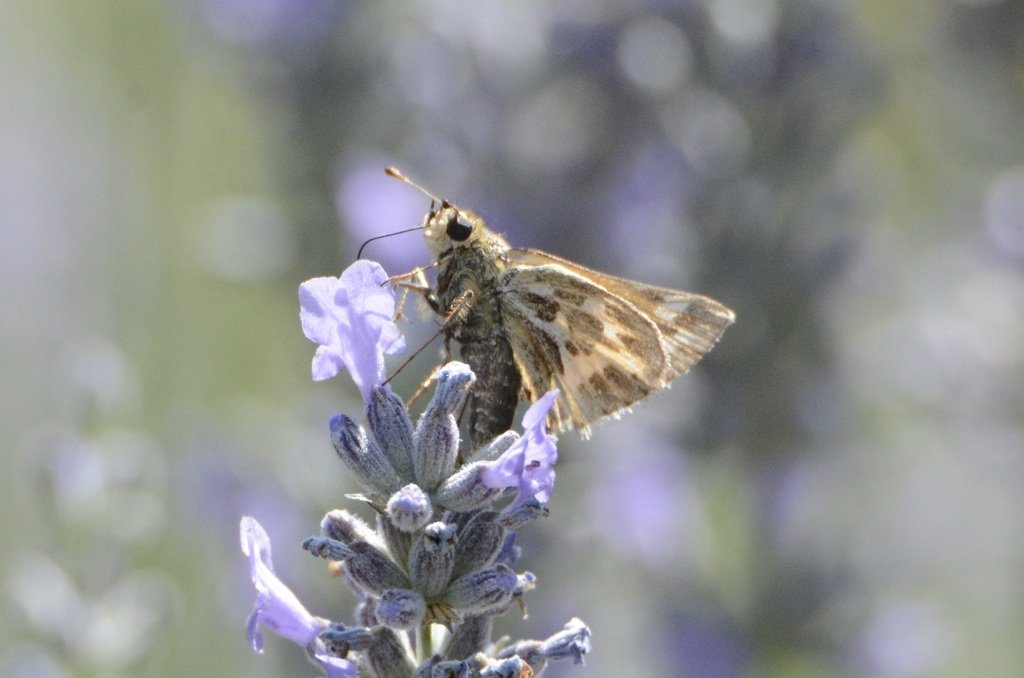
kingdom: Animalia
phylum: Arthropoda
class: Insecta
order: Lepidoptera
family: Hesperiidae
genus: Polites
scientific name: Polites sabuleti
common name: Sandhill Skipper
